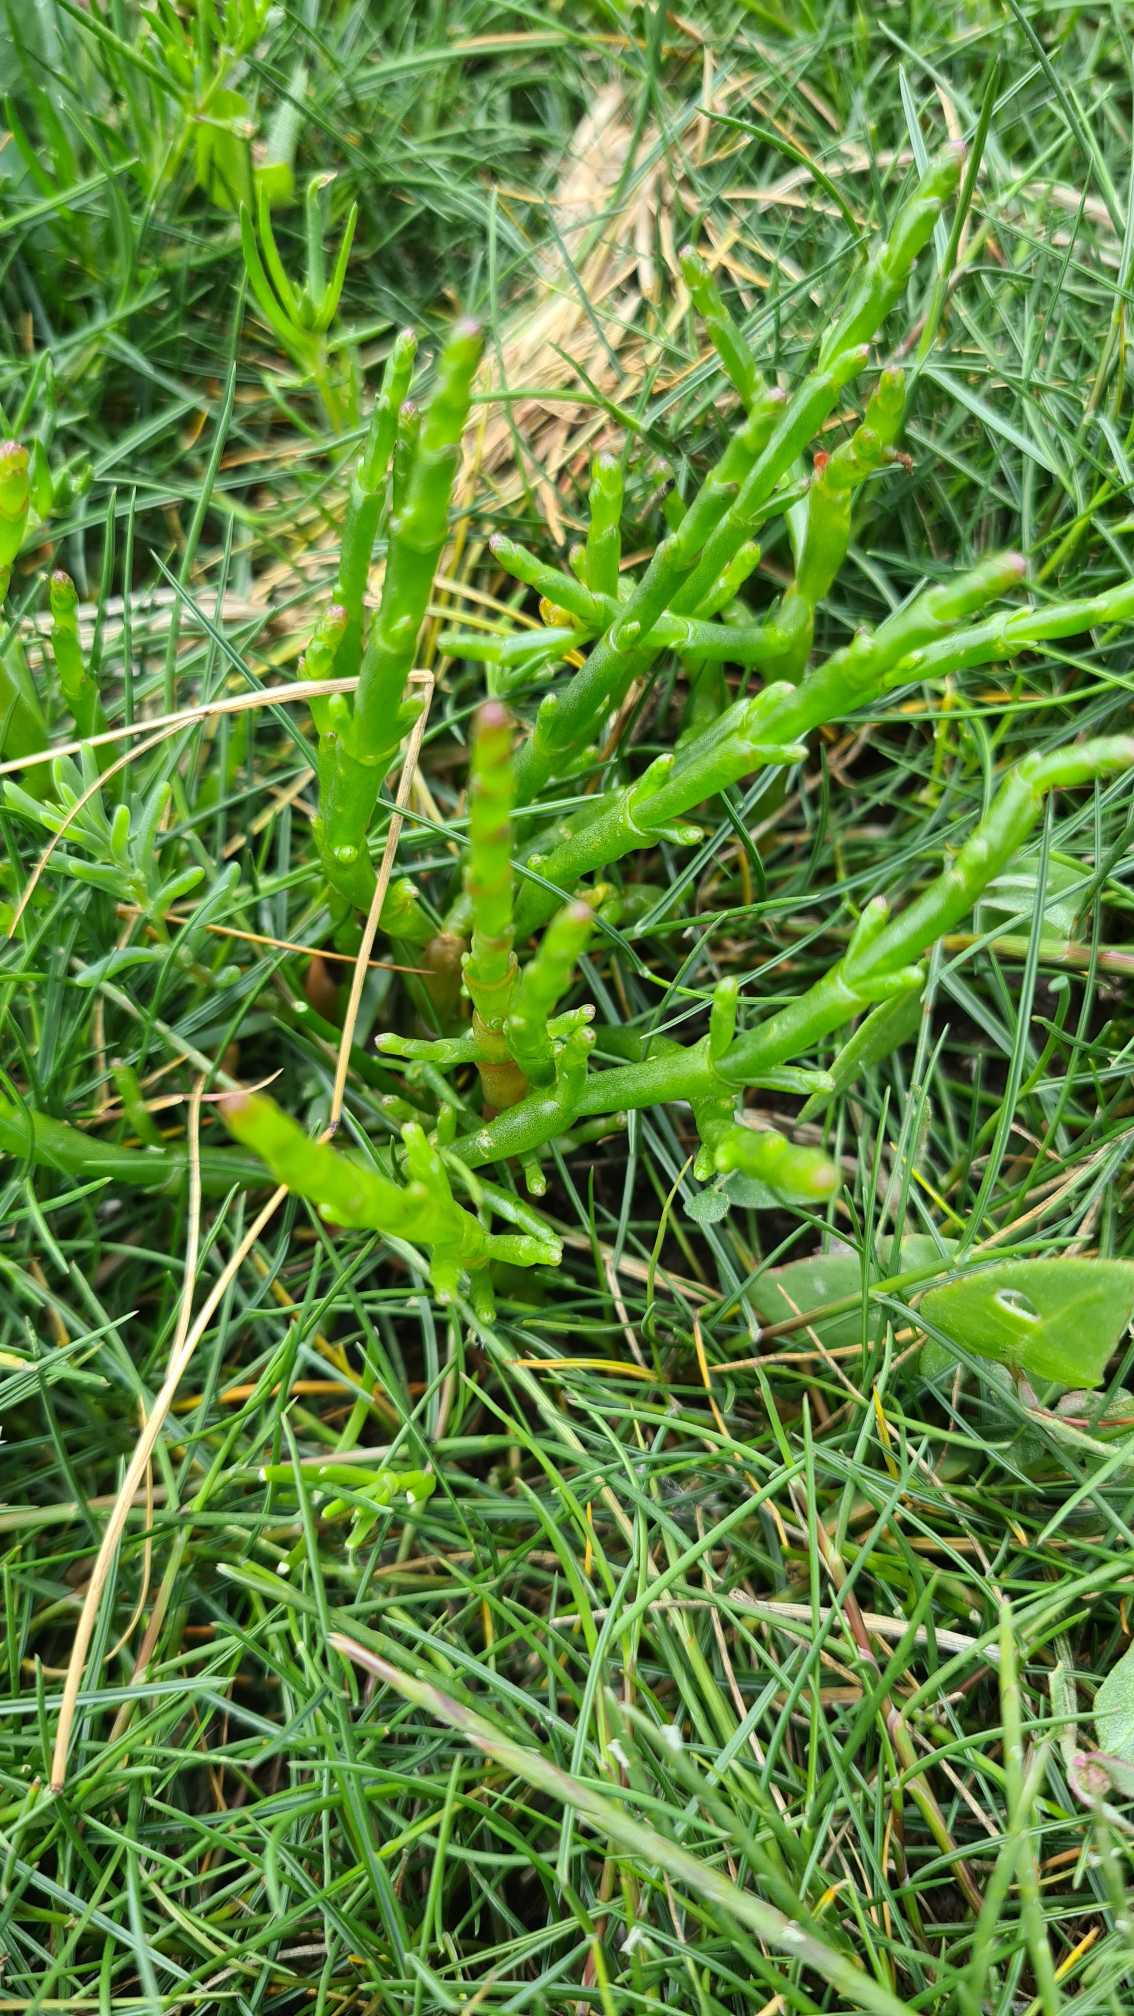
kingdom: Plantae
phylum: Tracheophyta
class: Magnoliopsida
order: Caryophyllales
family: Amaranthaceae
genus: Salicornia
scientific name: Salicornia europaea
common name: Almindelig salturt
